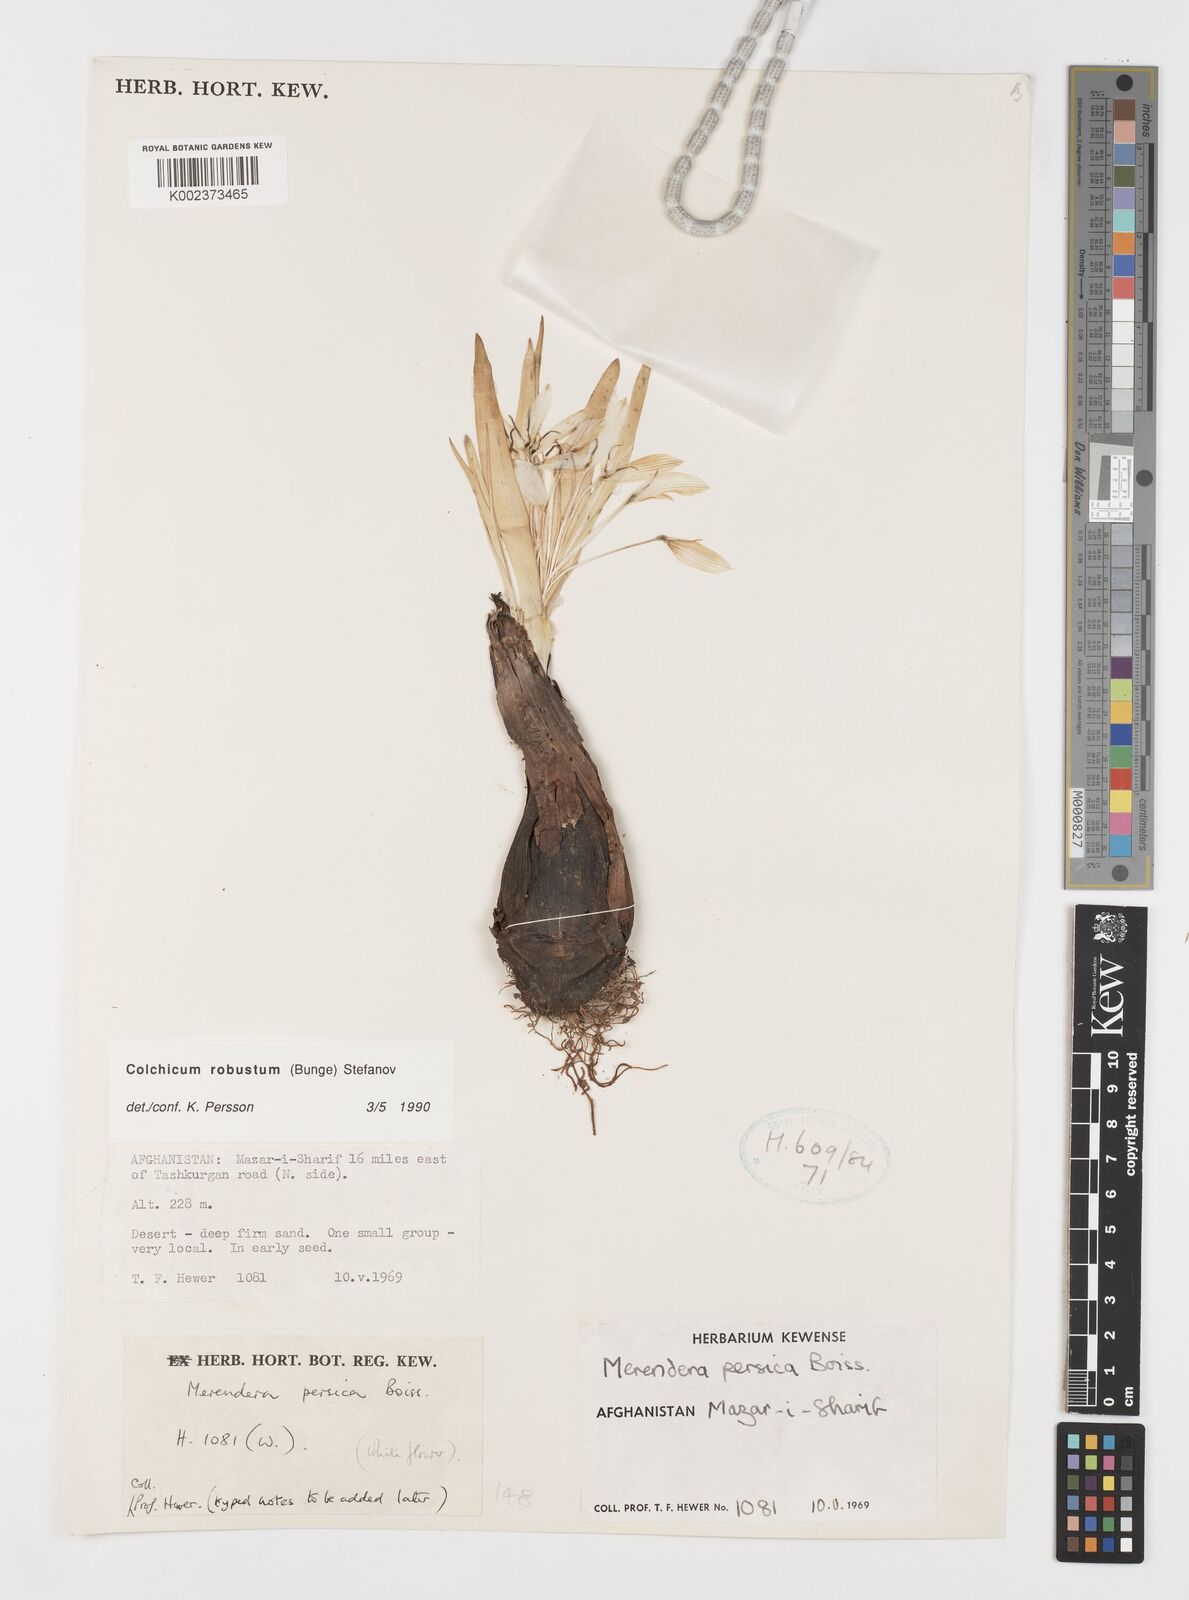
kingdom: Plantae
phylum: Tracheophyta
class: Liliopsida
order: Liliales
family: Colchicaceae
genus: Colchicum
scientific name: Colchicum robustum
